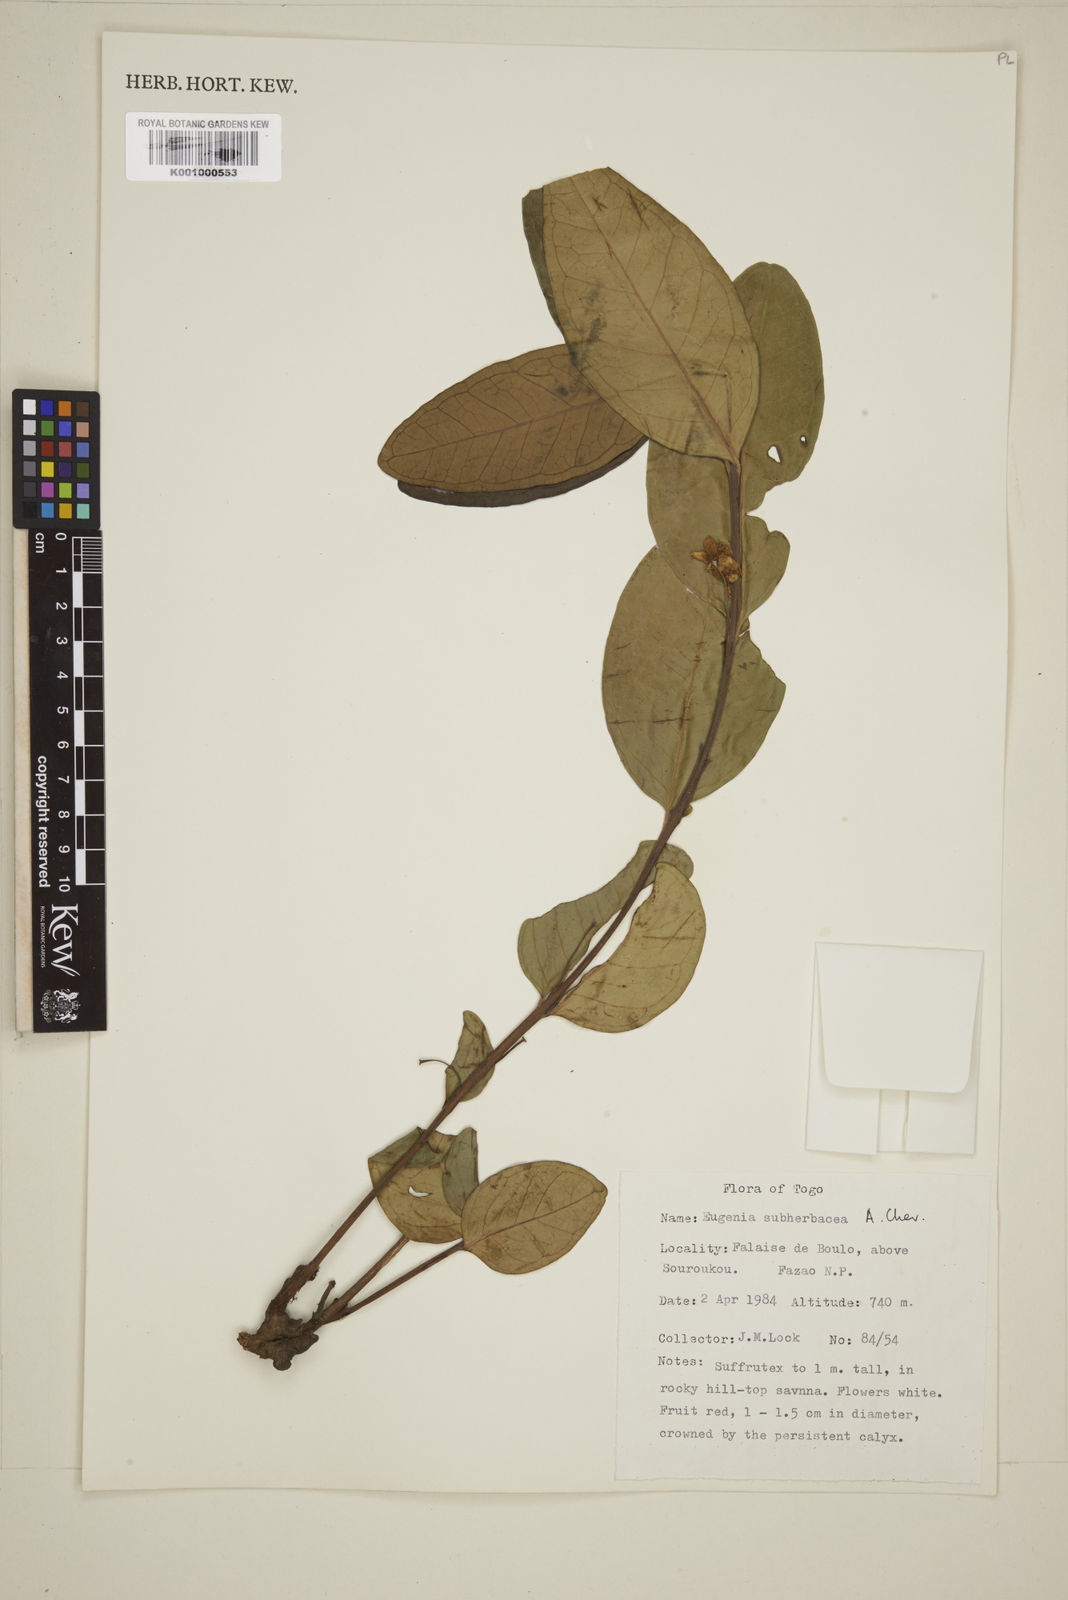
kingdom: Plantae
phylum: Tracheophyta
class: Magnoliopsida
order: Myrtales
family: Myrtaceae
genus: Eugenia
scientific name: Eugenia subherbacea
